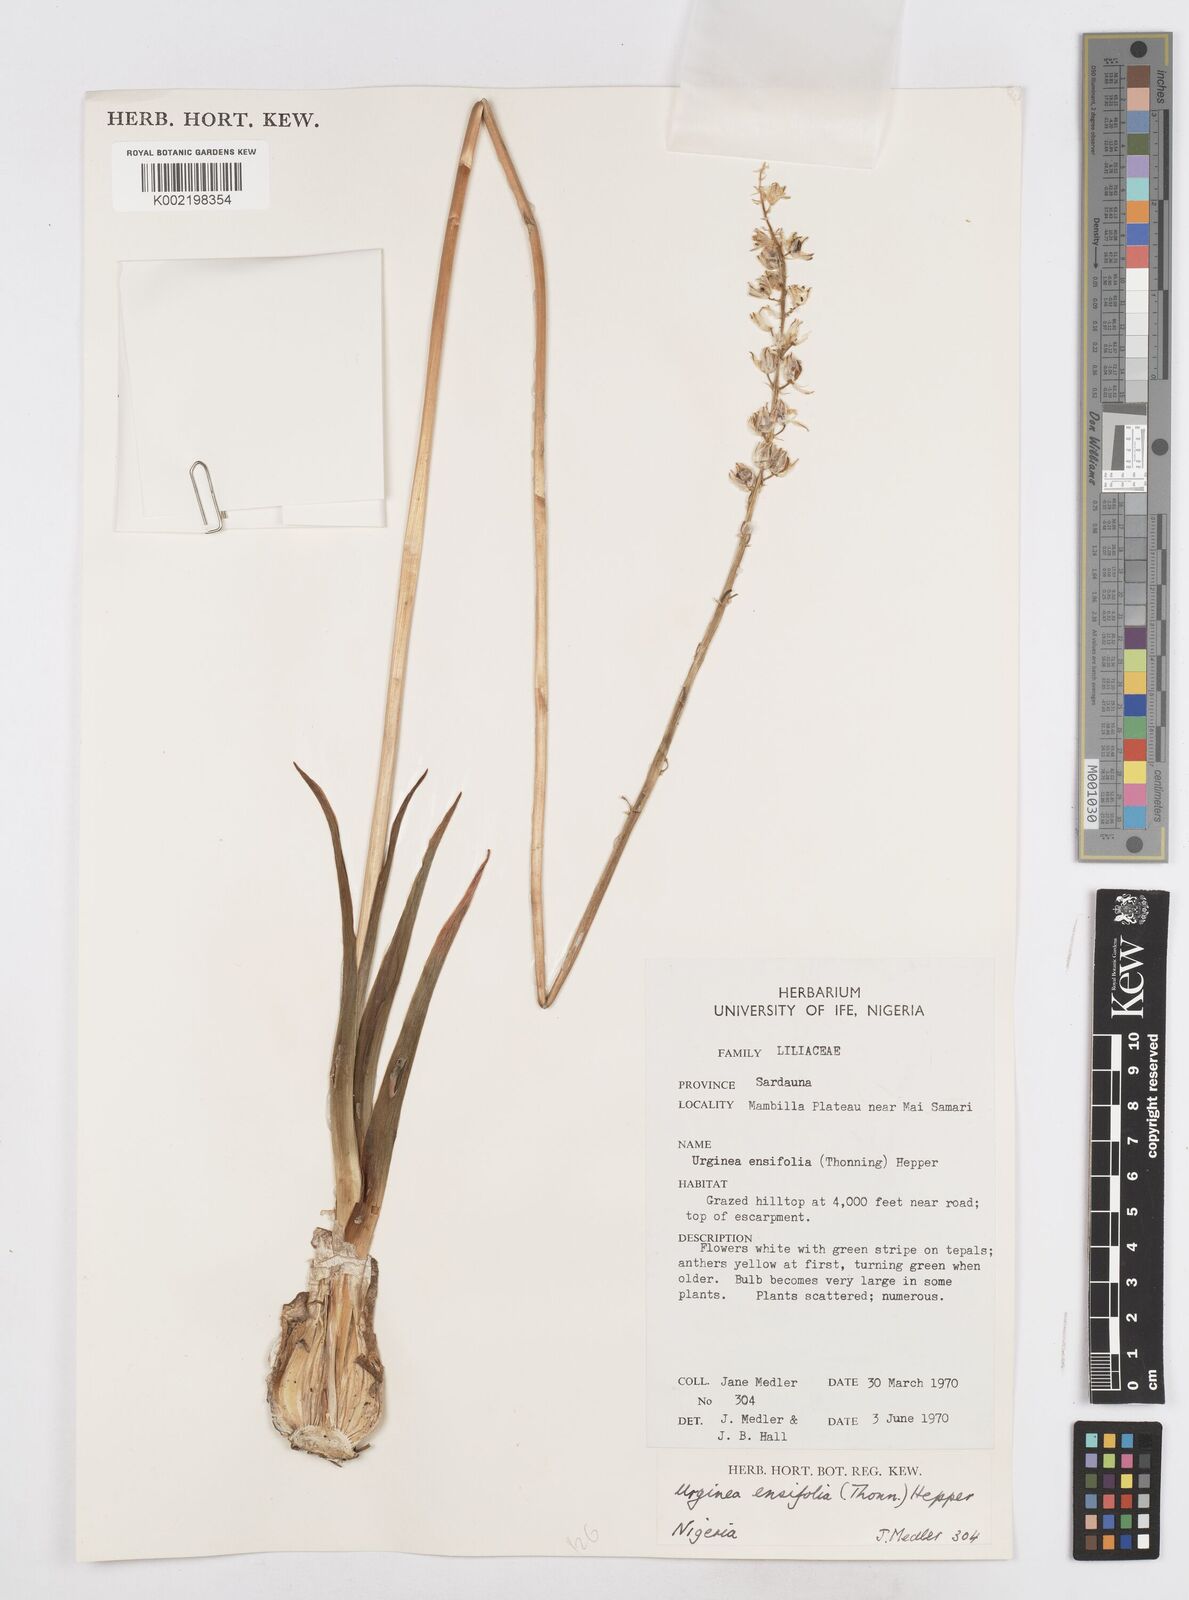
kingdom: Plantae
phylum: Tracheophyta
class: Liliopsida
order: Asparagales
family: Asparagaceae
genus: Ledebouria
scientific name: Ledebouria ensifolia
